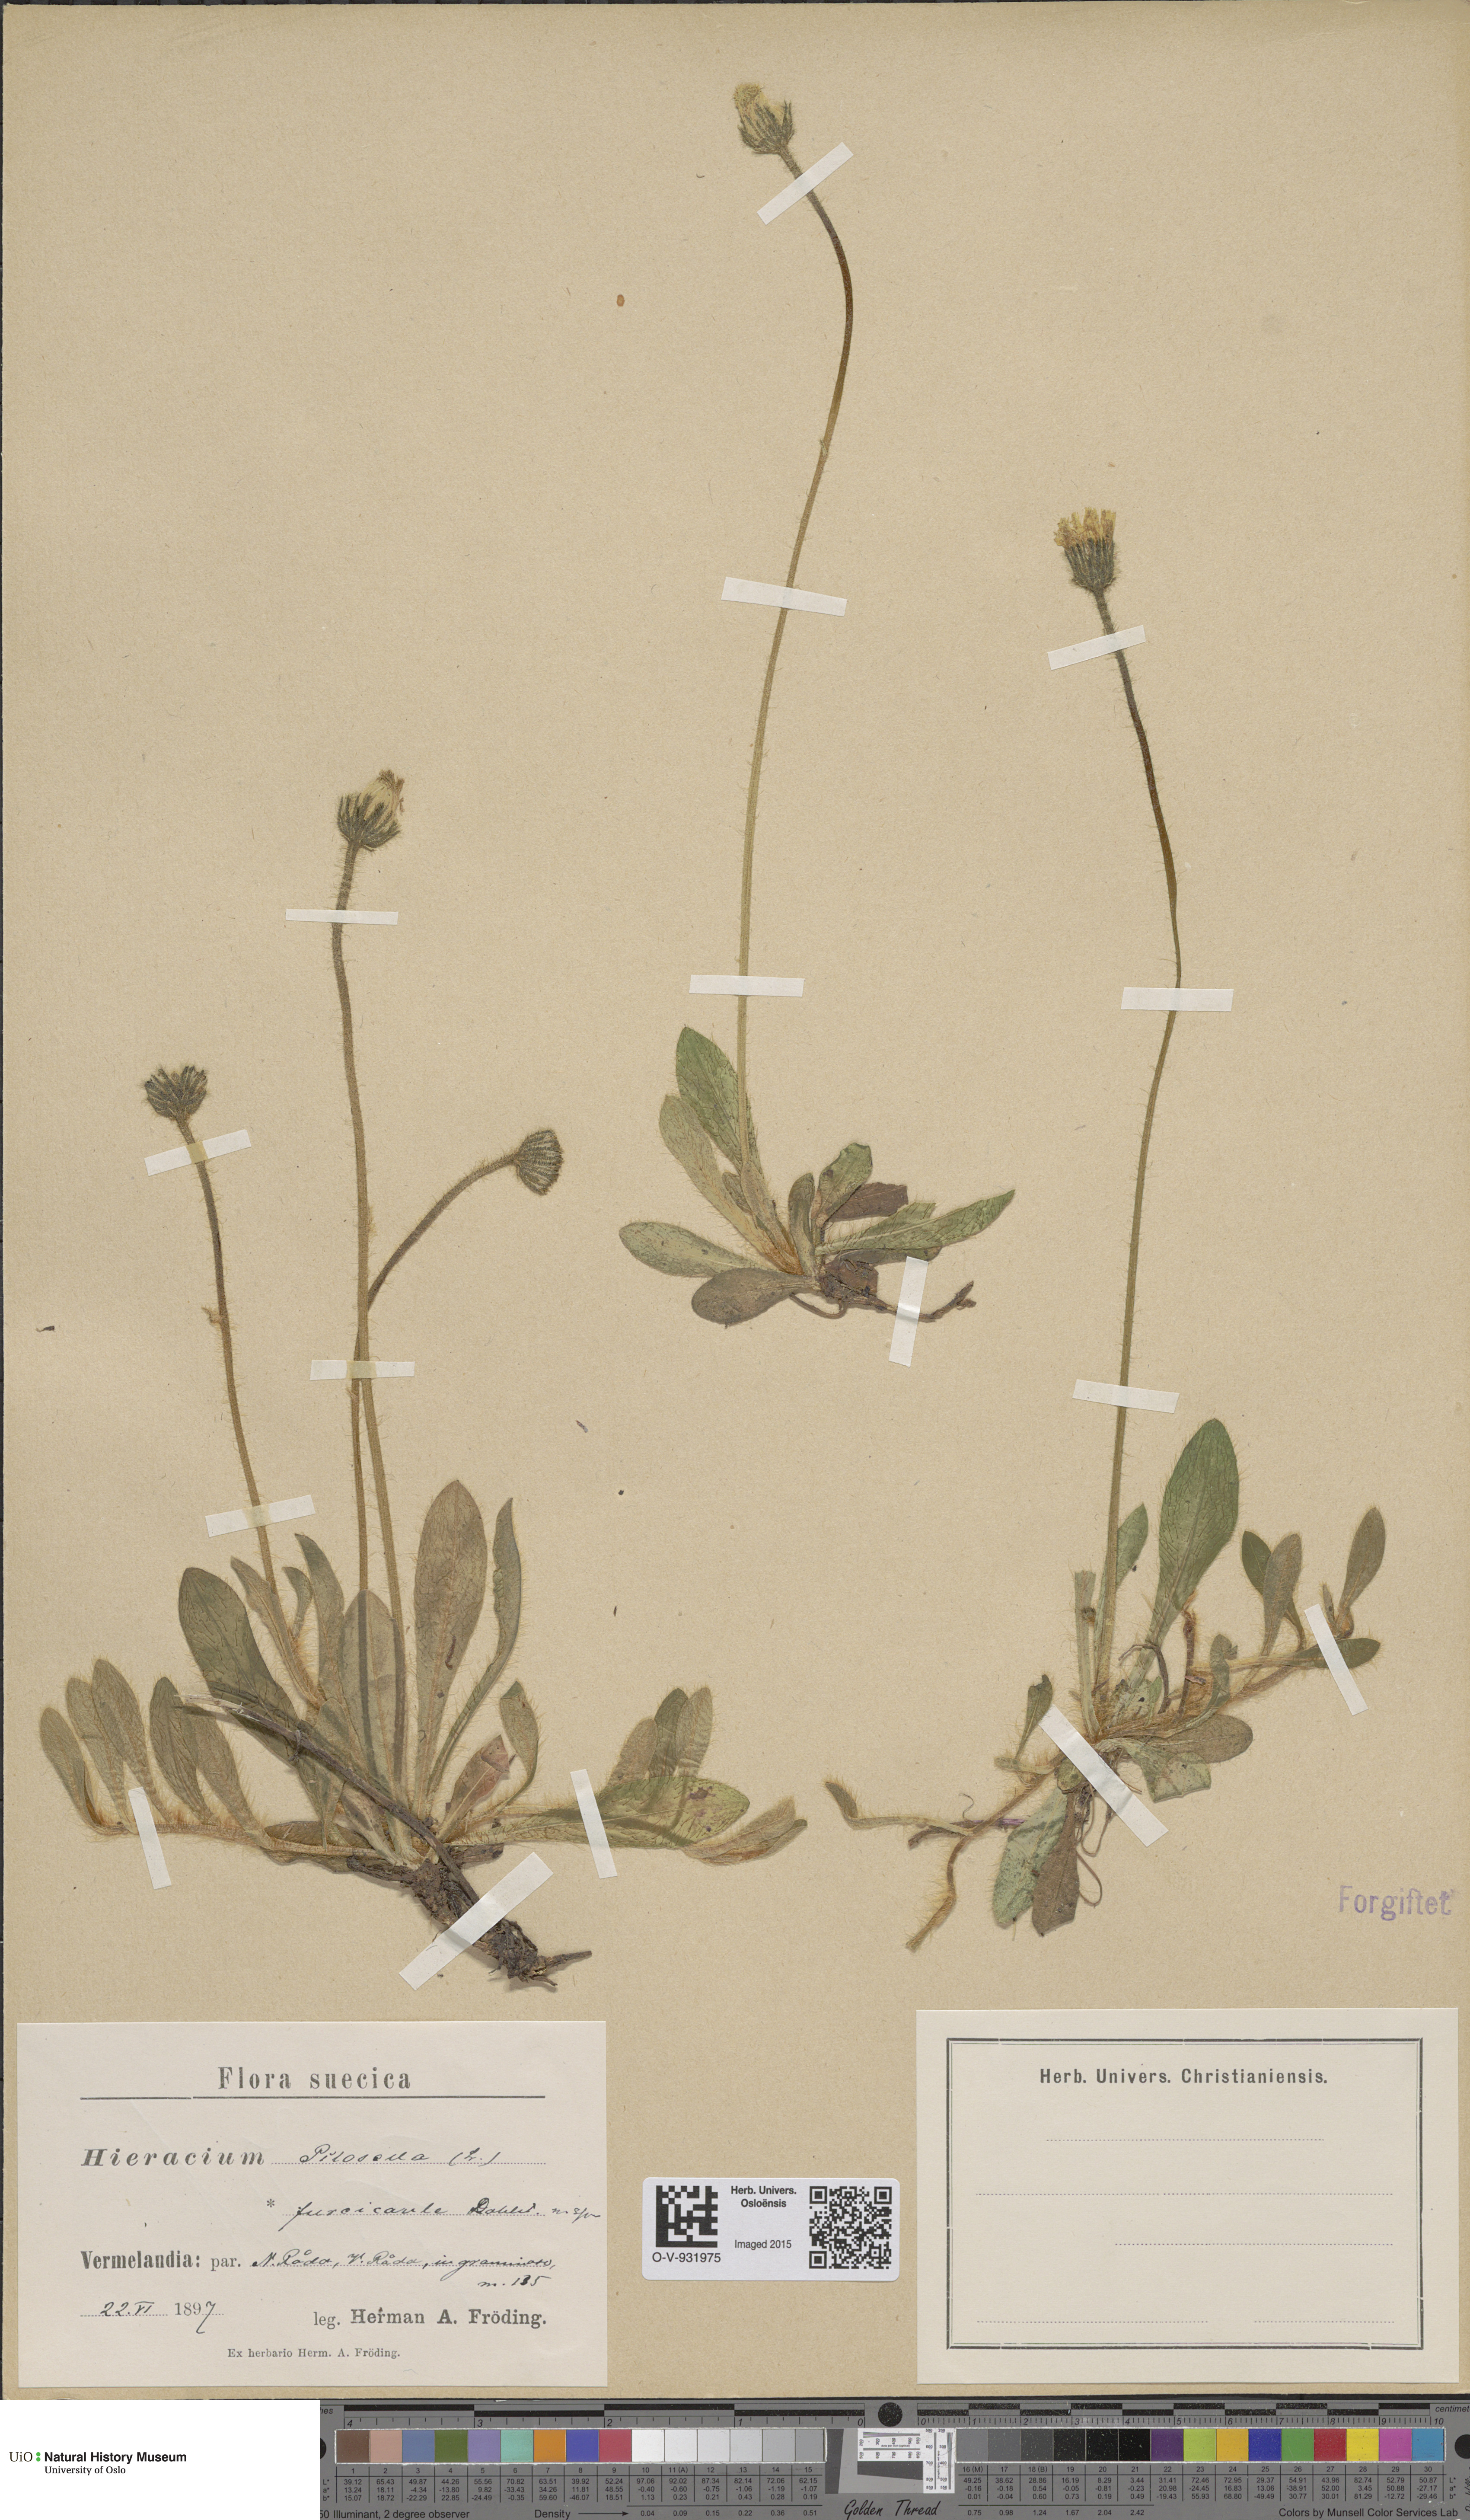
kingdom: Plantae
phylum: Tracheophyta
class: Magnoliopsida
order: Asterales
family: Asteraceae
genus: Pilosella
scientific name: Pilosella officinarum
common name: Mouse-ear hawkweed
